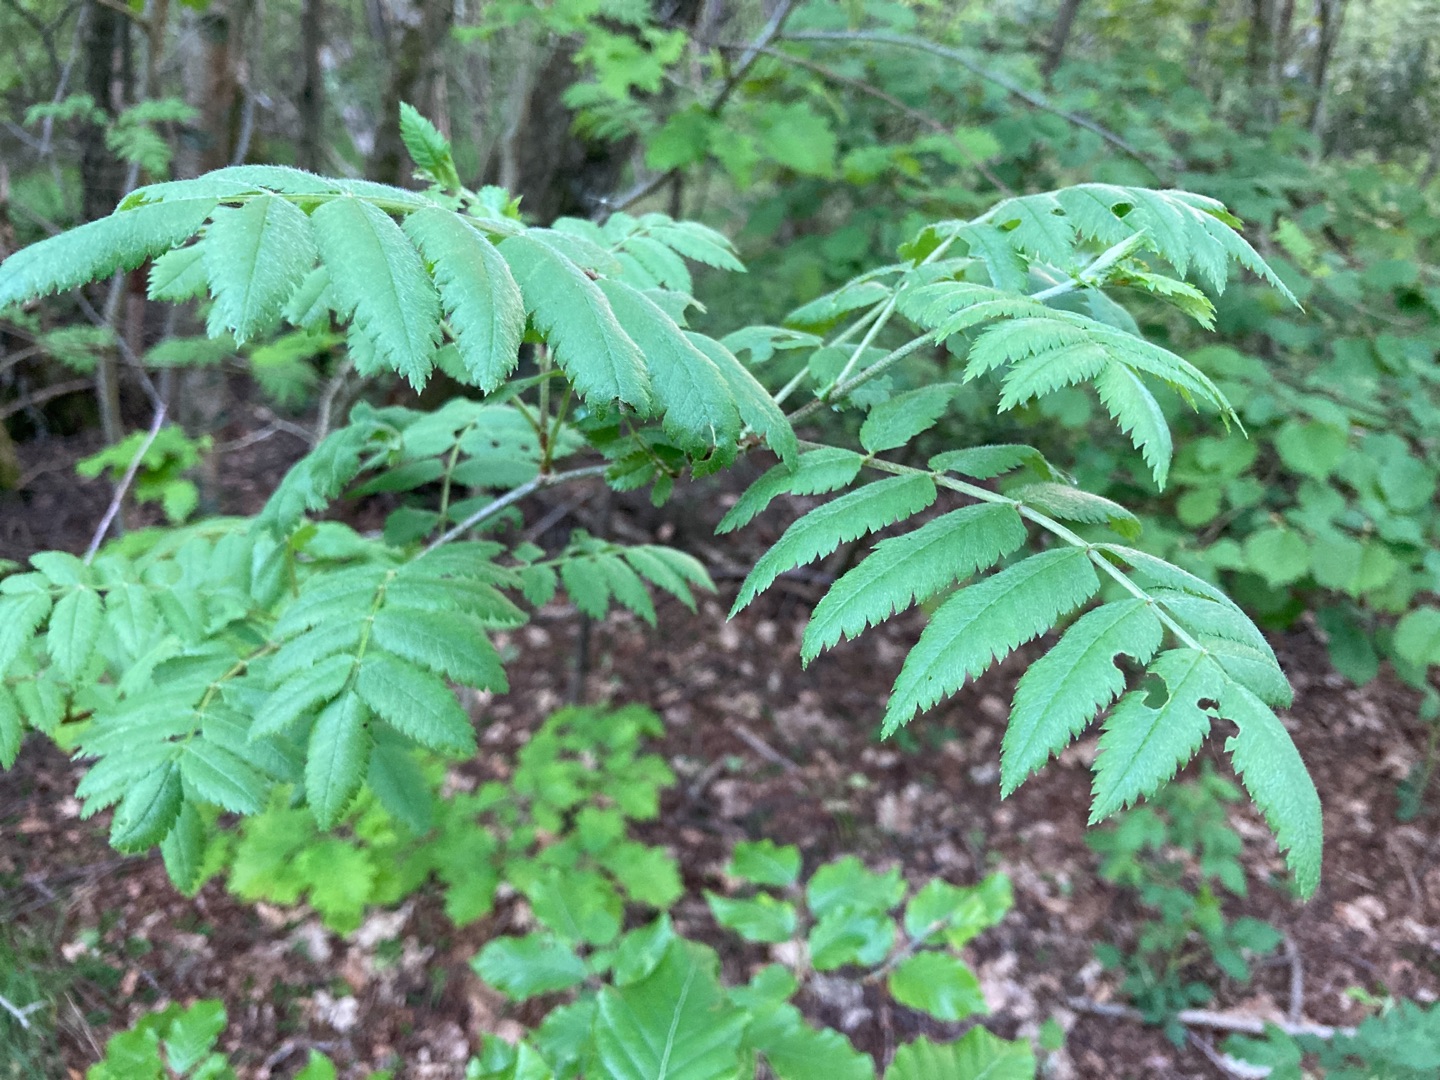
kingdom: Plantae
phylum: Tracheophyta
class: Magnoliopsida
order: Rosales
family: Rosaceae
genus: Sorbus
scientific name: Sorbus aucuparia
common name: Almindelig røn
